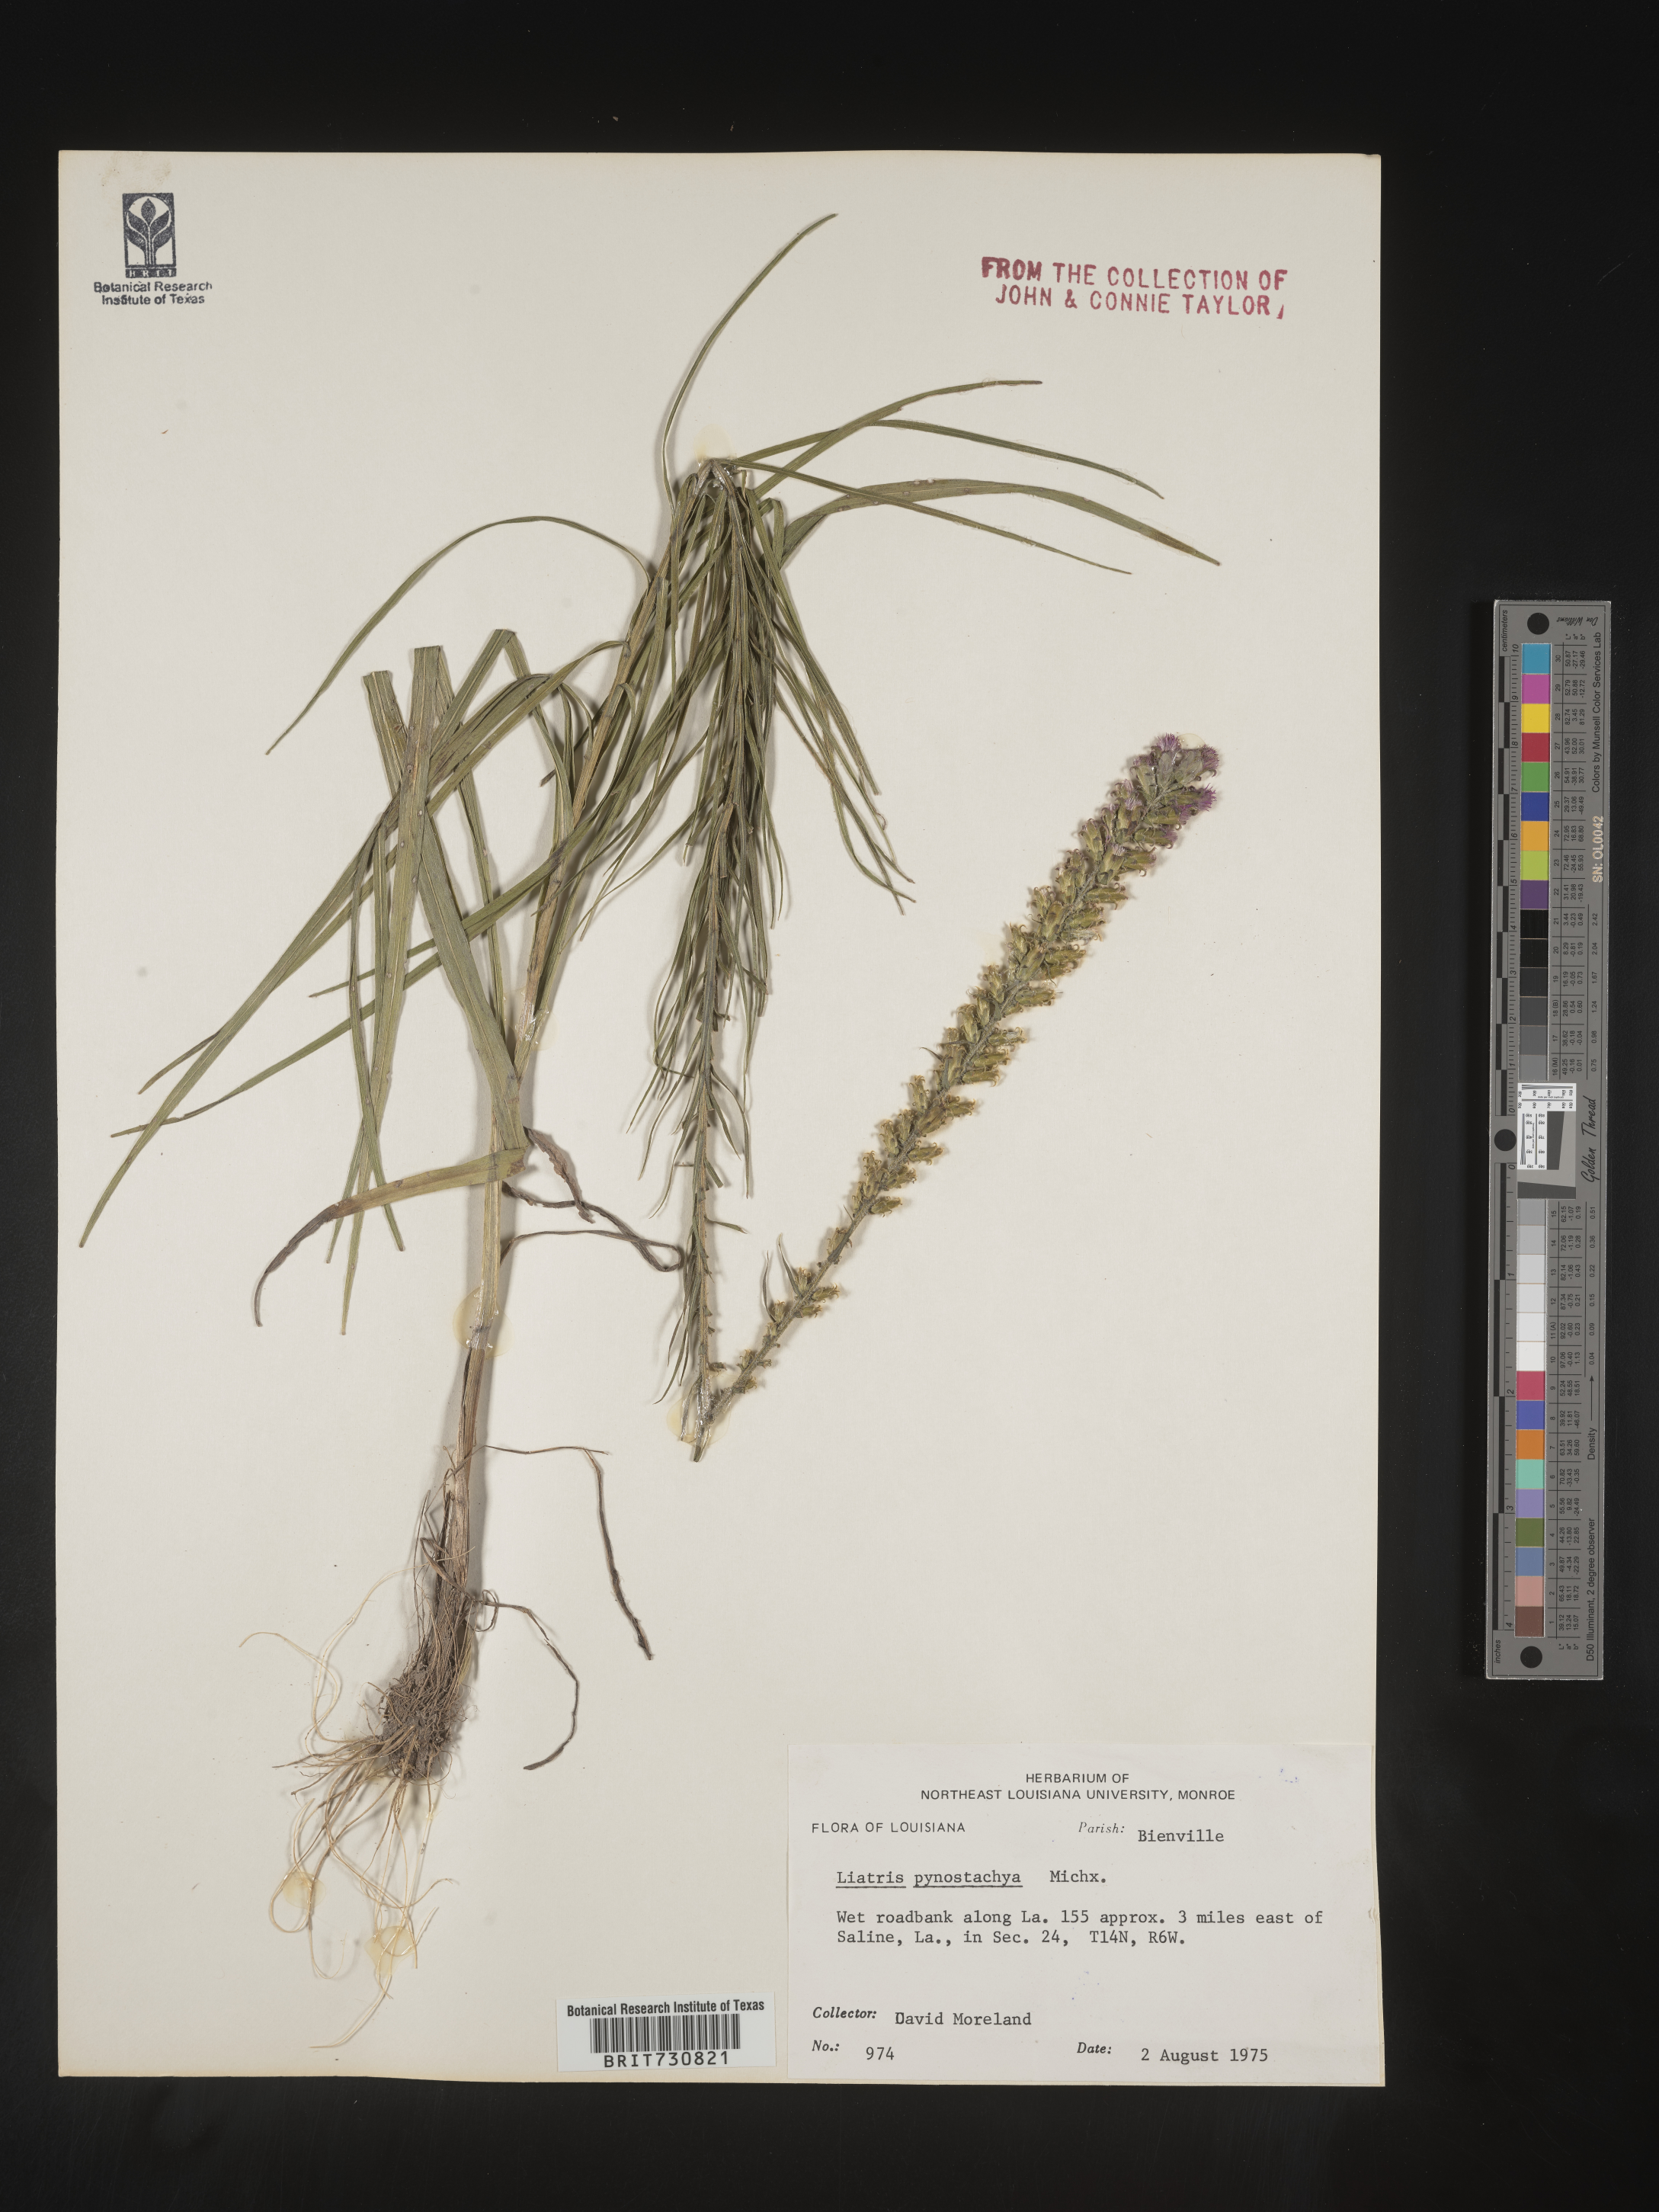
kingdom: Plantae
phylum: Tracheophyta
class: Magnoliopsida
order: Asterales
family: Asteraceae
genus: Liatris
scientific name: Liatris pycnostachya
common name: Cattail gayfeather
